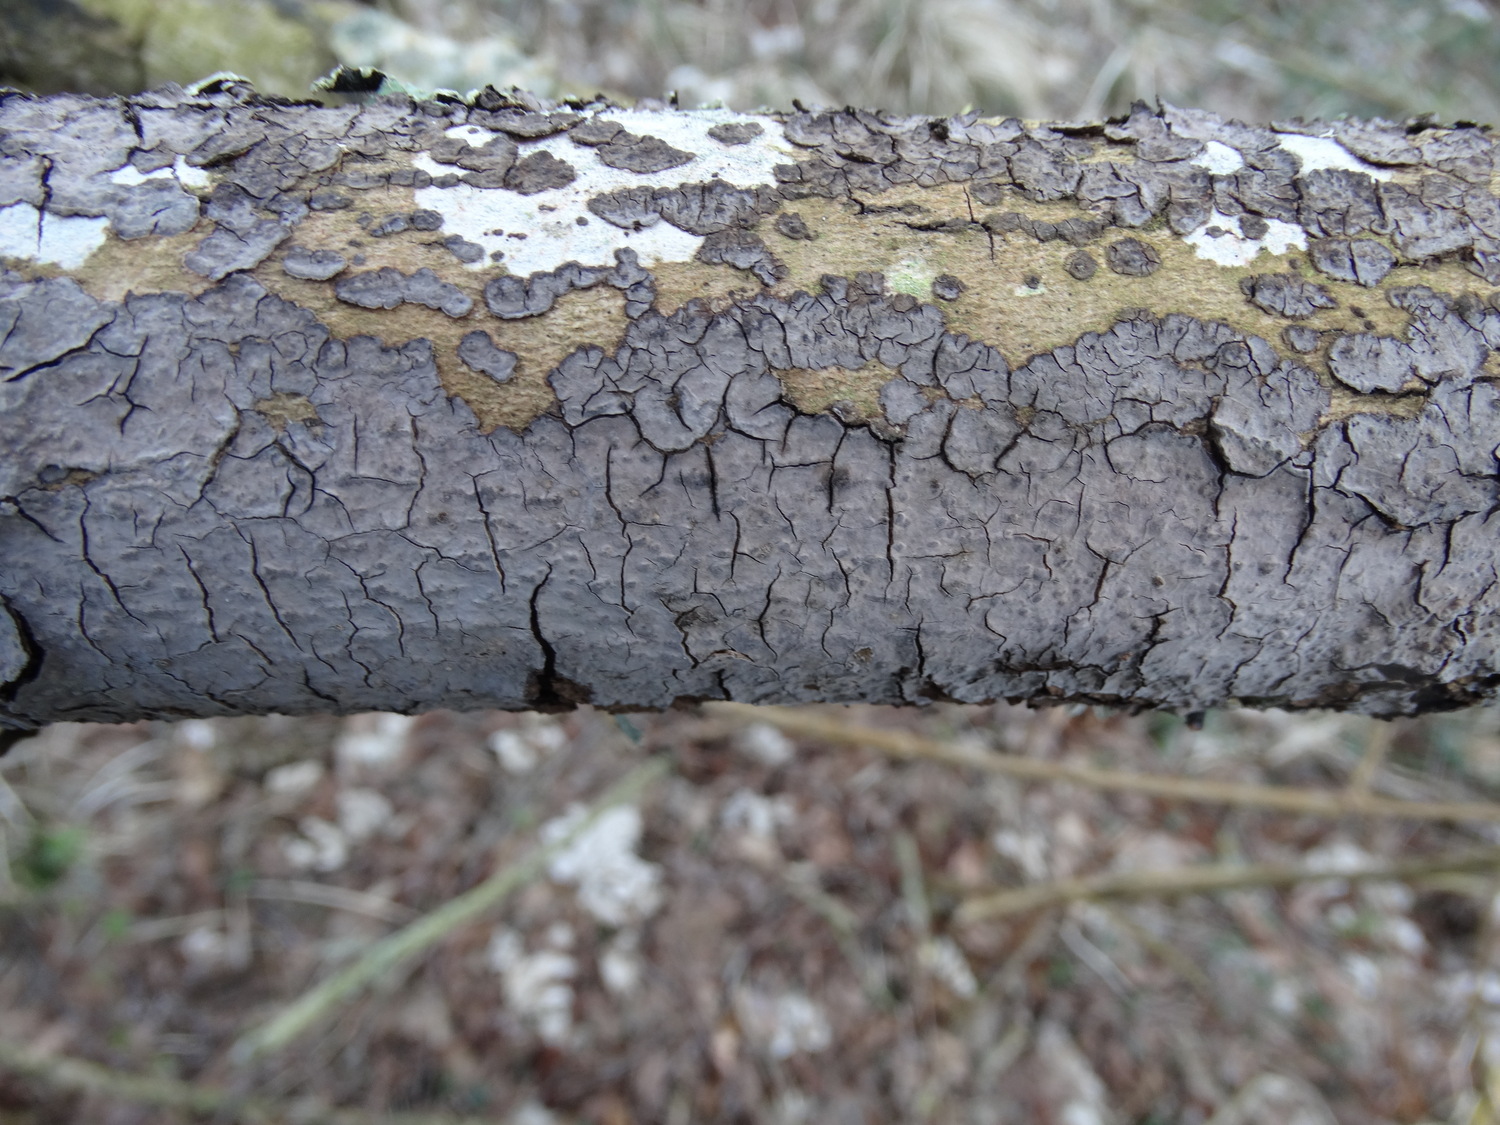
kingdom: Fungi
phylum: Basidiomycota
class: Agaricomycetes
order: Russulales
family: Peniophoraceae
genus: Peniophora
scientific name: Peniophora limitata
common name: mørkrandet voksskind
